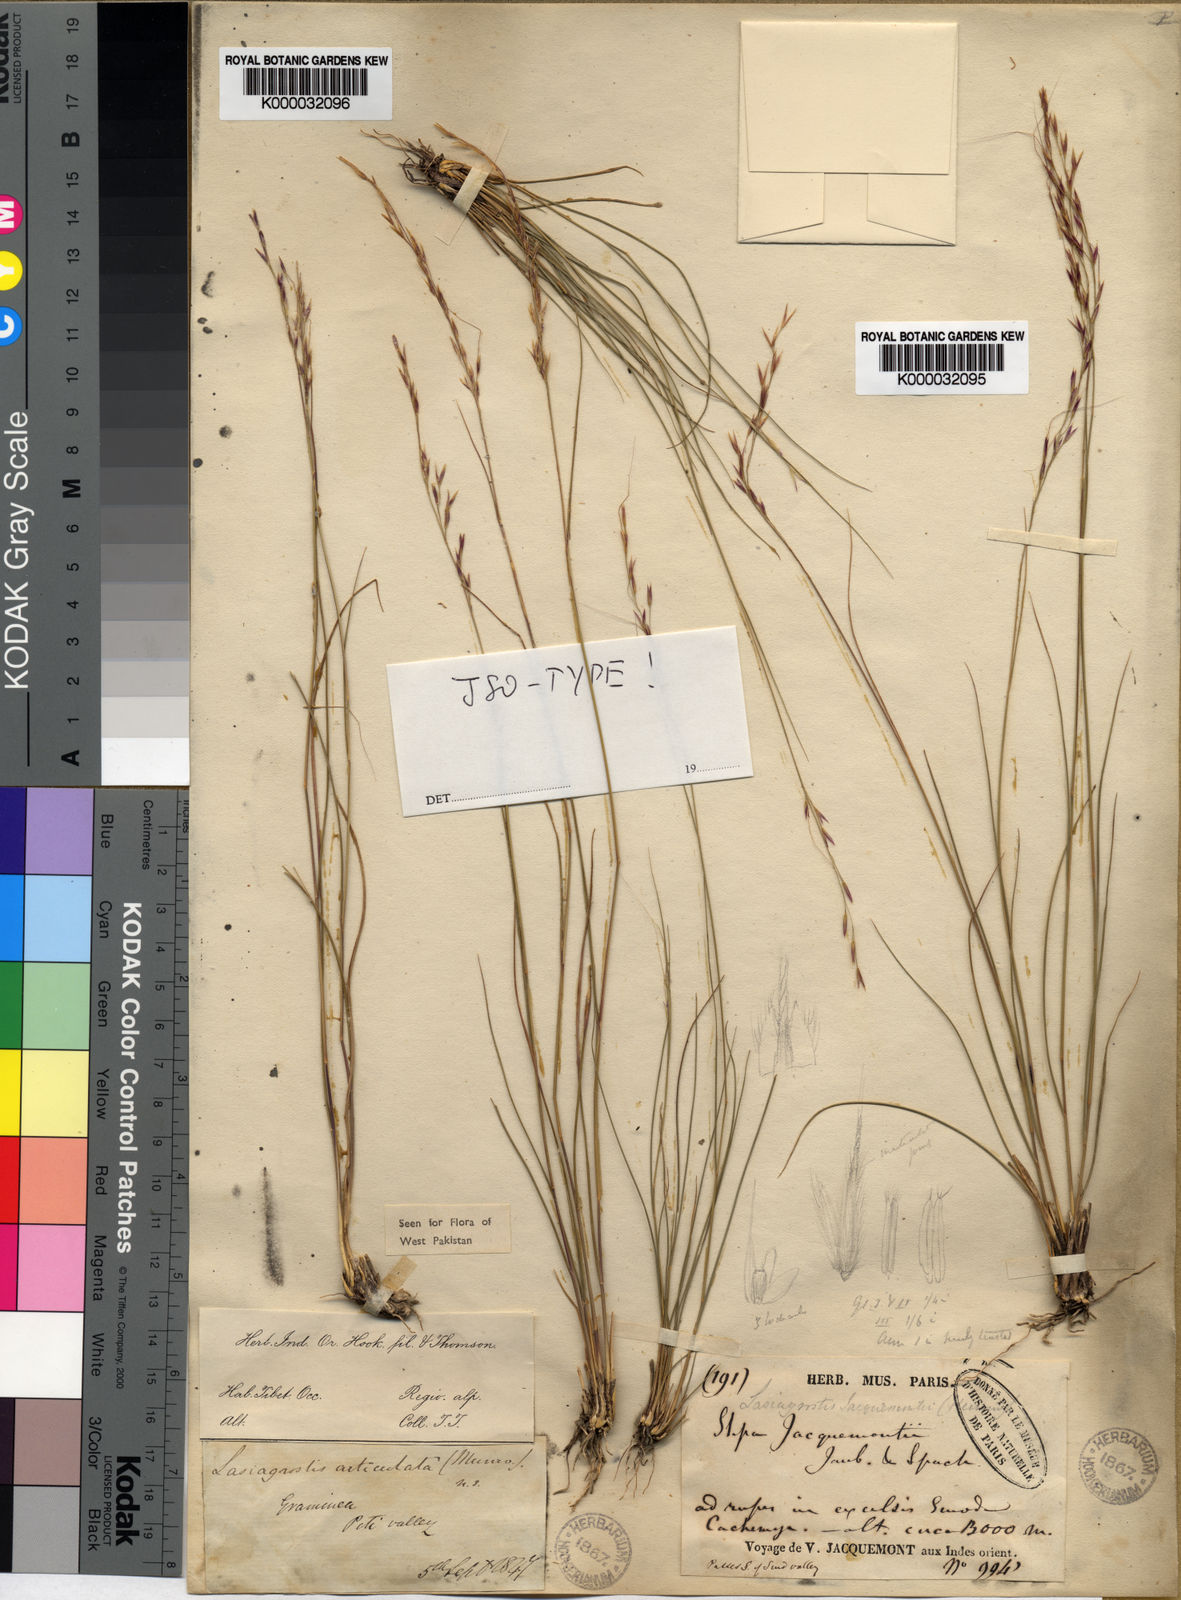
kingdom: Plantae
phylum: Tracheophyta
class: Liliopsida
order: Poales
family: Poaceae
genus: Achnatherum
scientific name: Achnatherum jacquemontii
